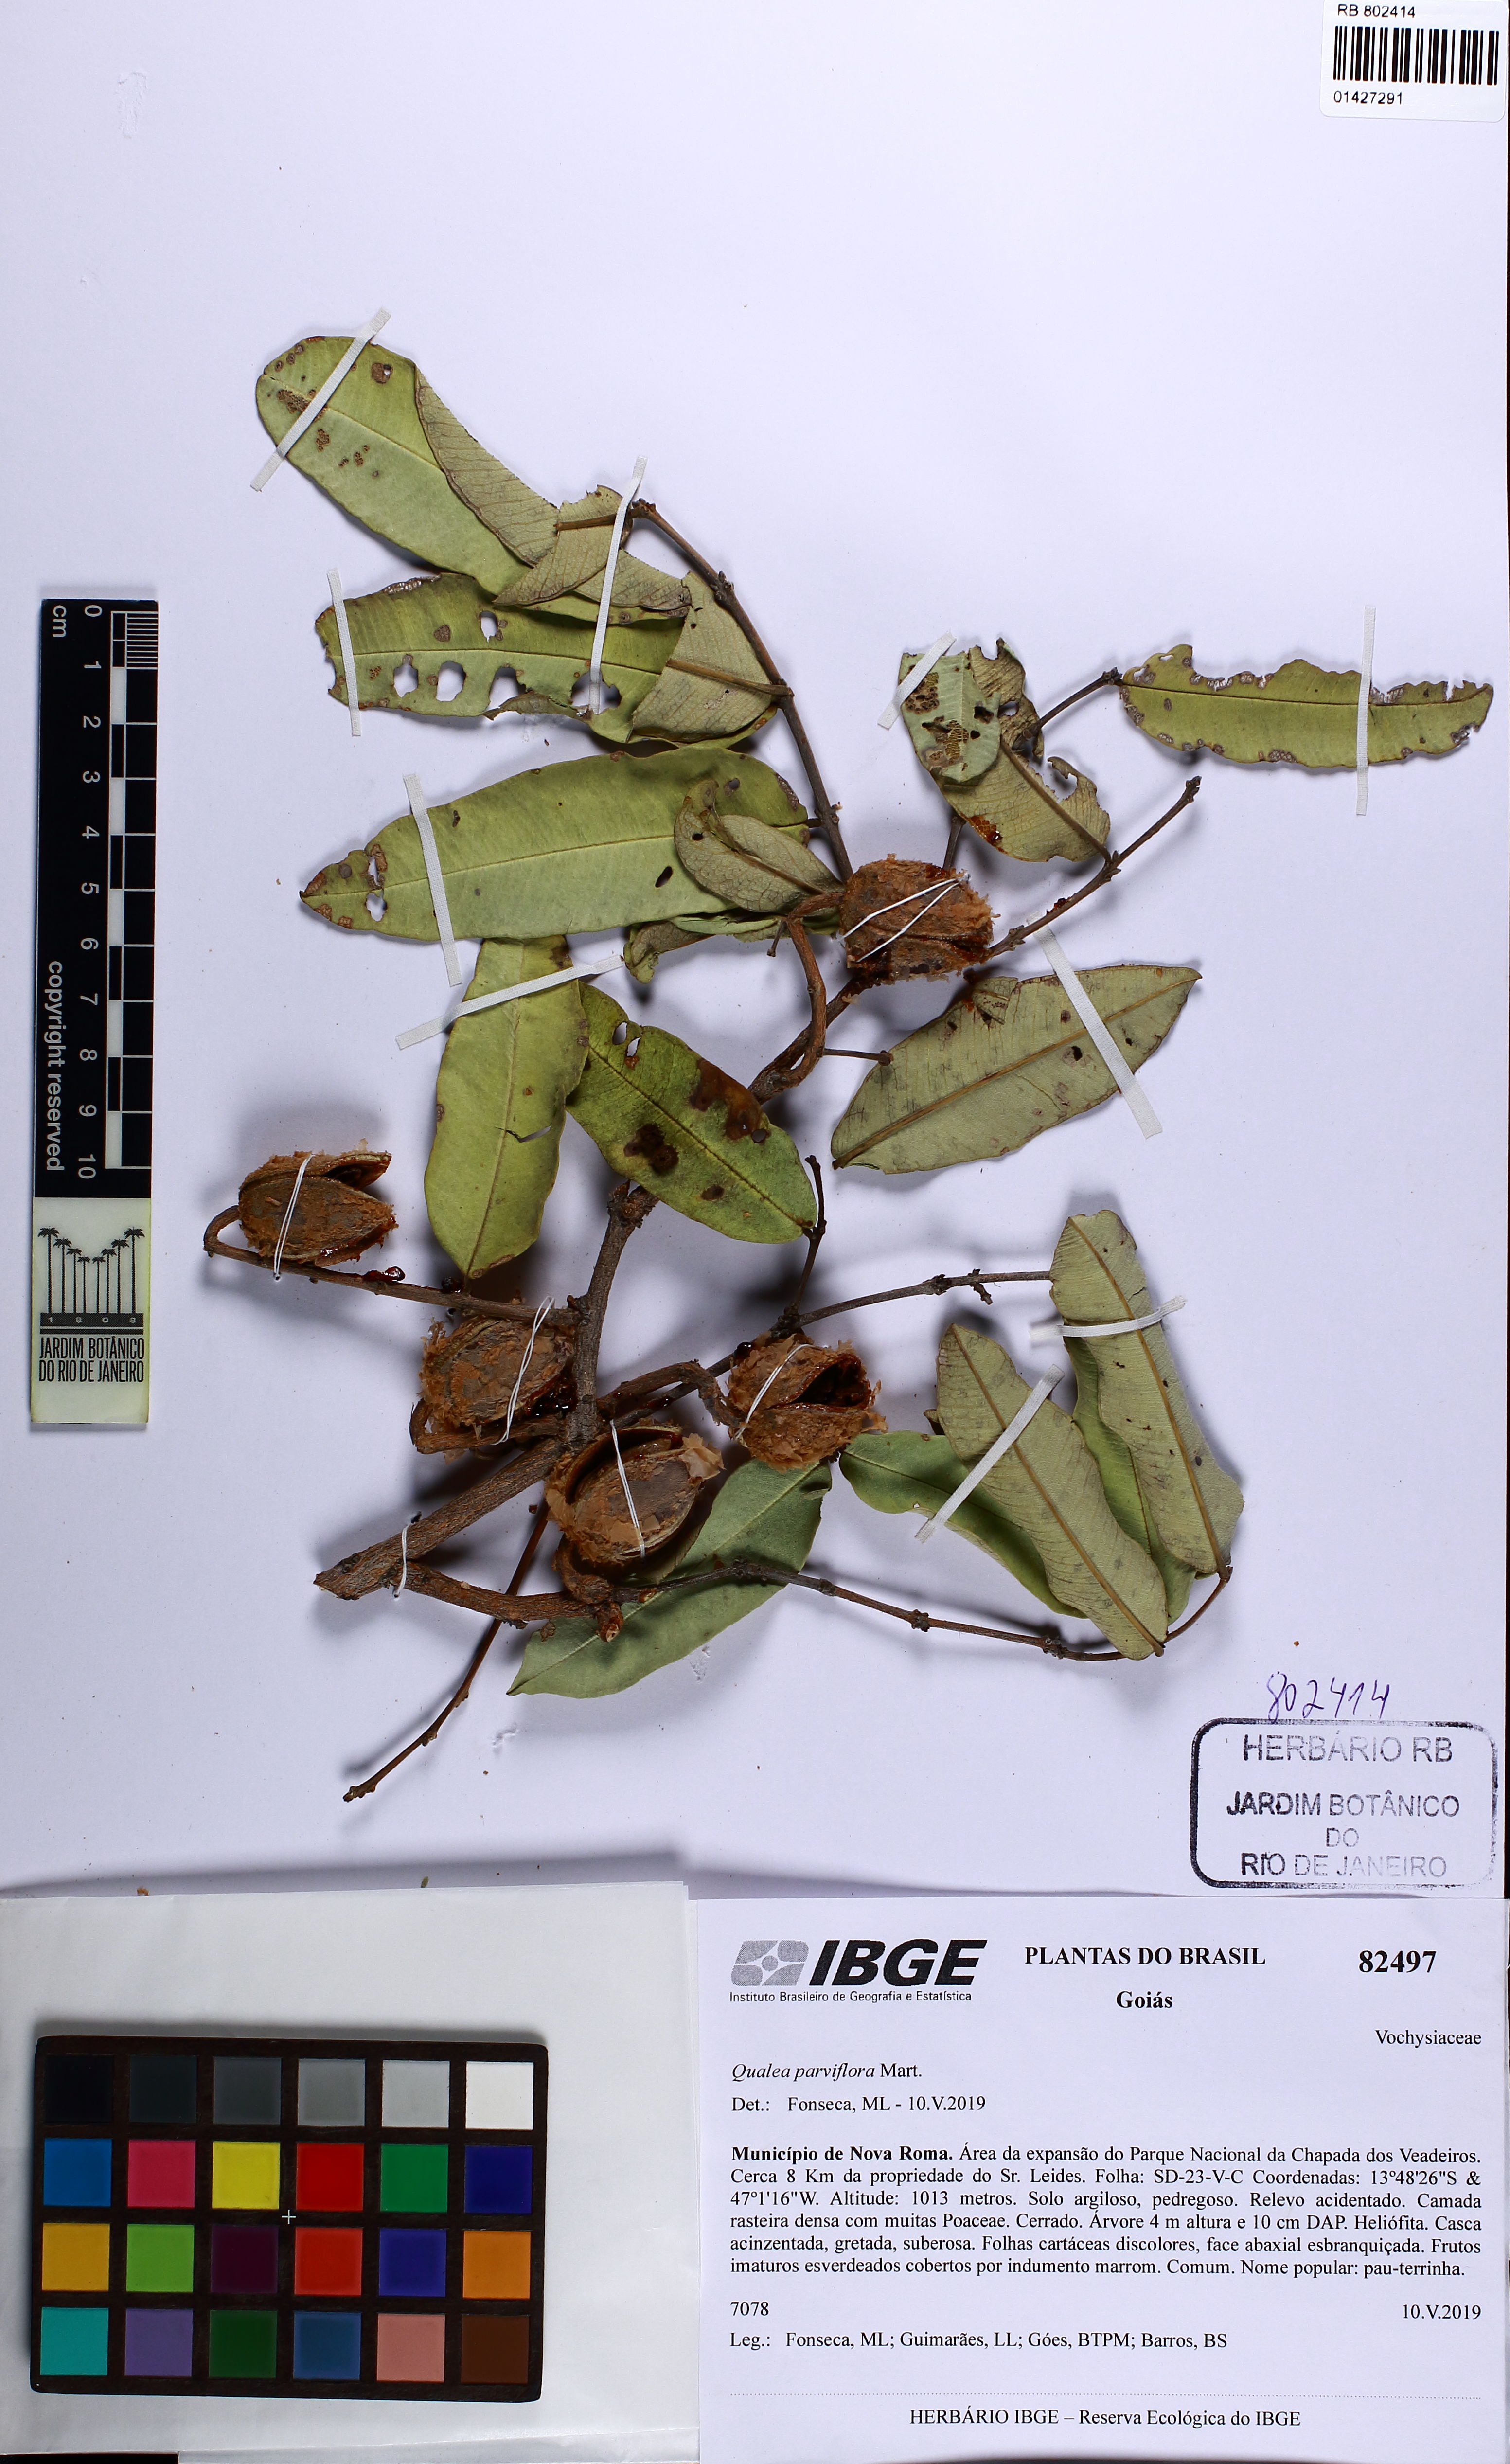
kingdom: Plantae
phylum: Tracheophyta
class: Magnoliopsida
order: Myrtales
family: Vochysiaceae
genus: Qualea
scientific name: Qualea parviflora
